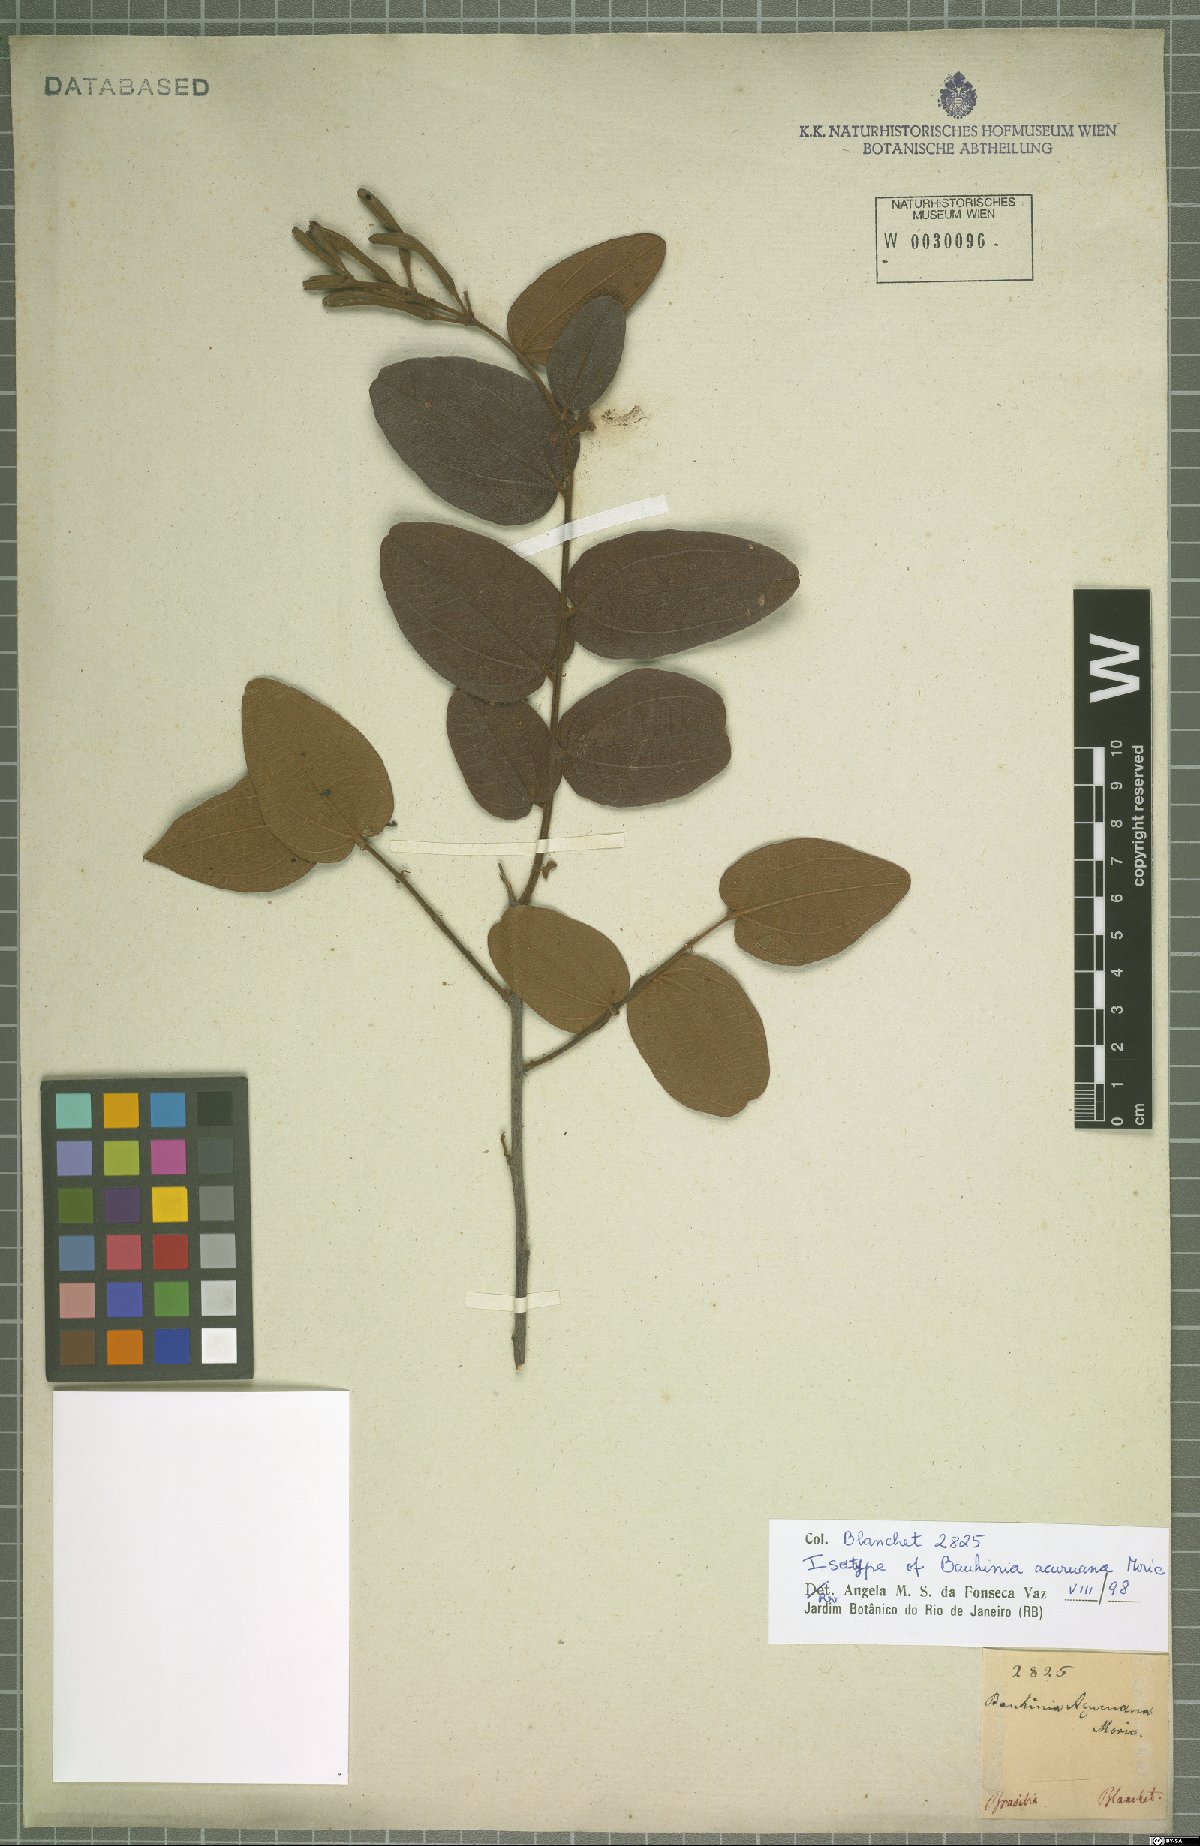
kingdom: Plantae
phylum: Tracheophyta
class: Magnoliopsida
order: Fabales
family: Fabaceae
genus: Bauhinia
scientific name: Bauhinia acuruana
